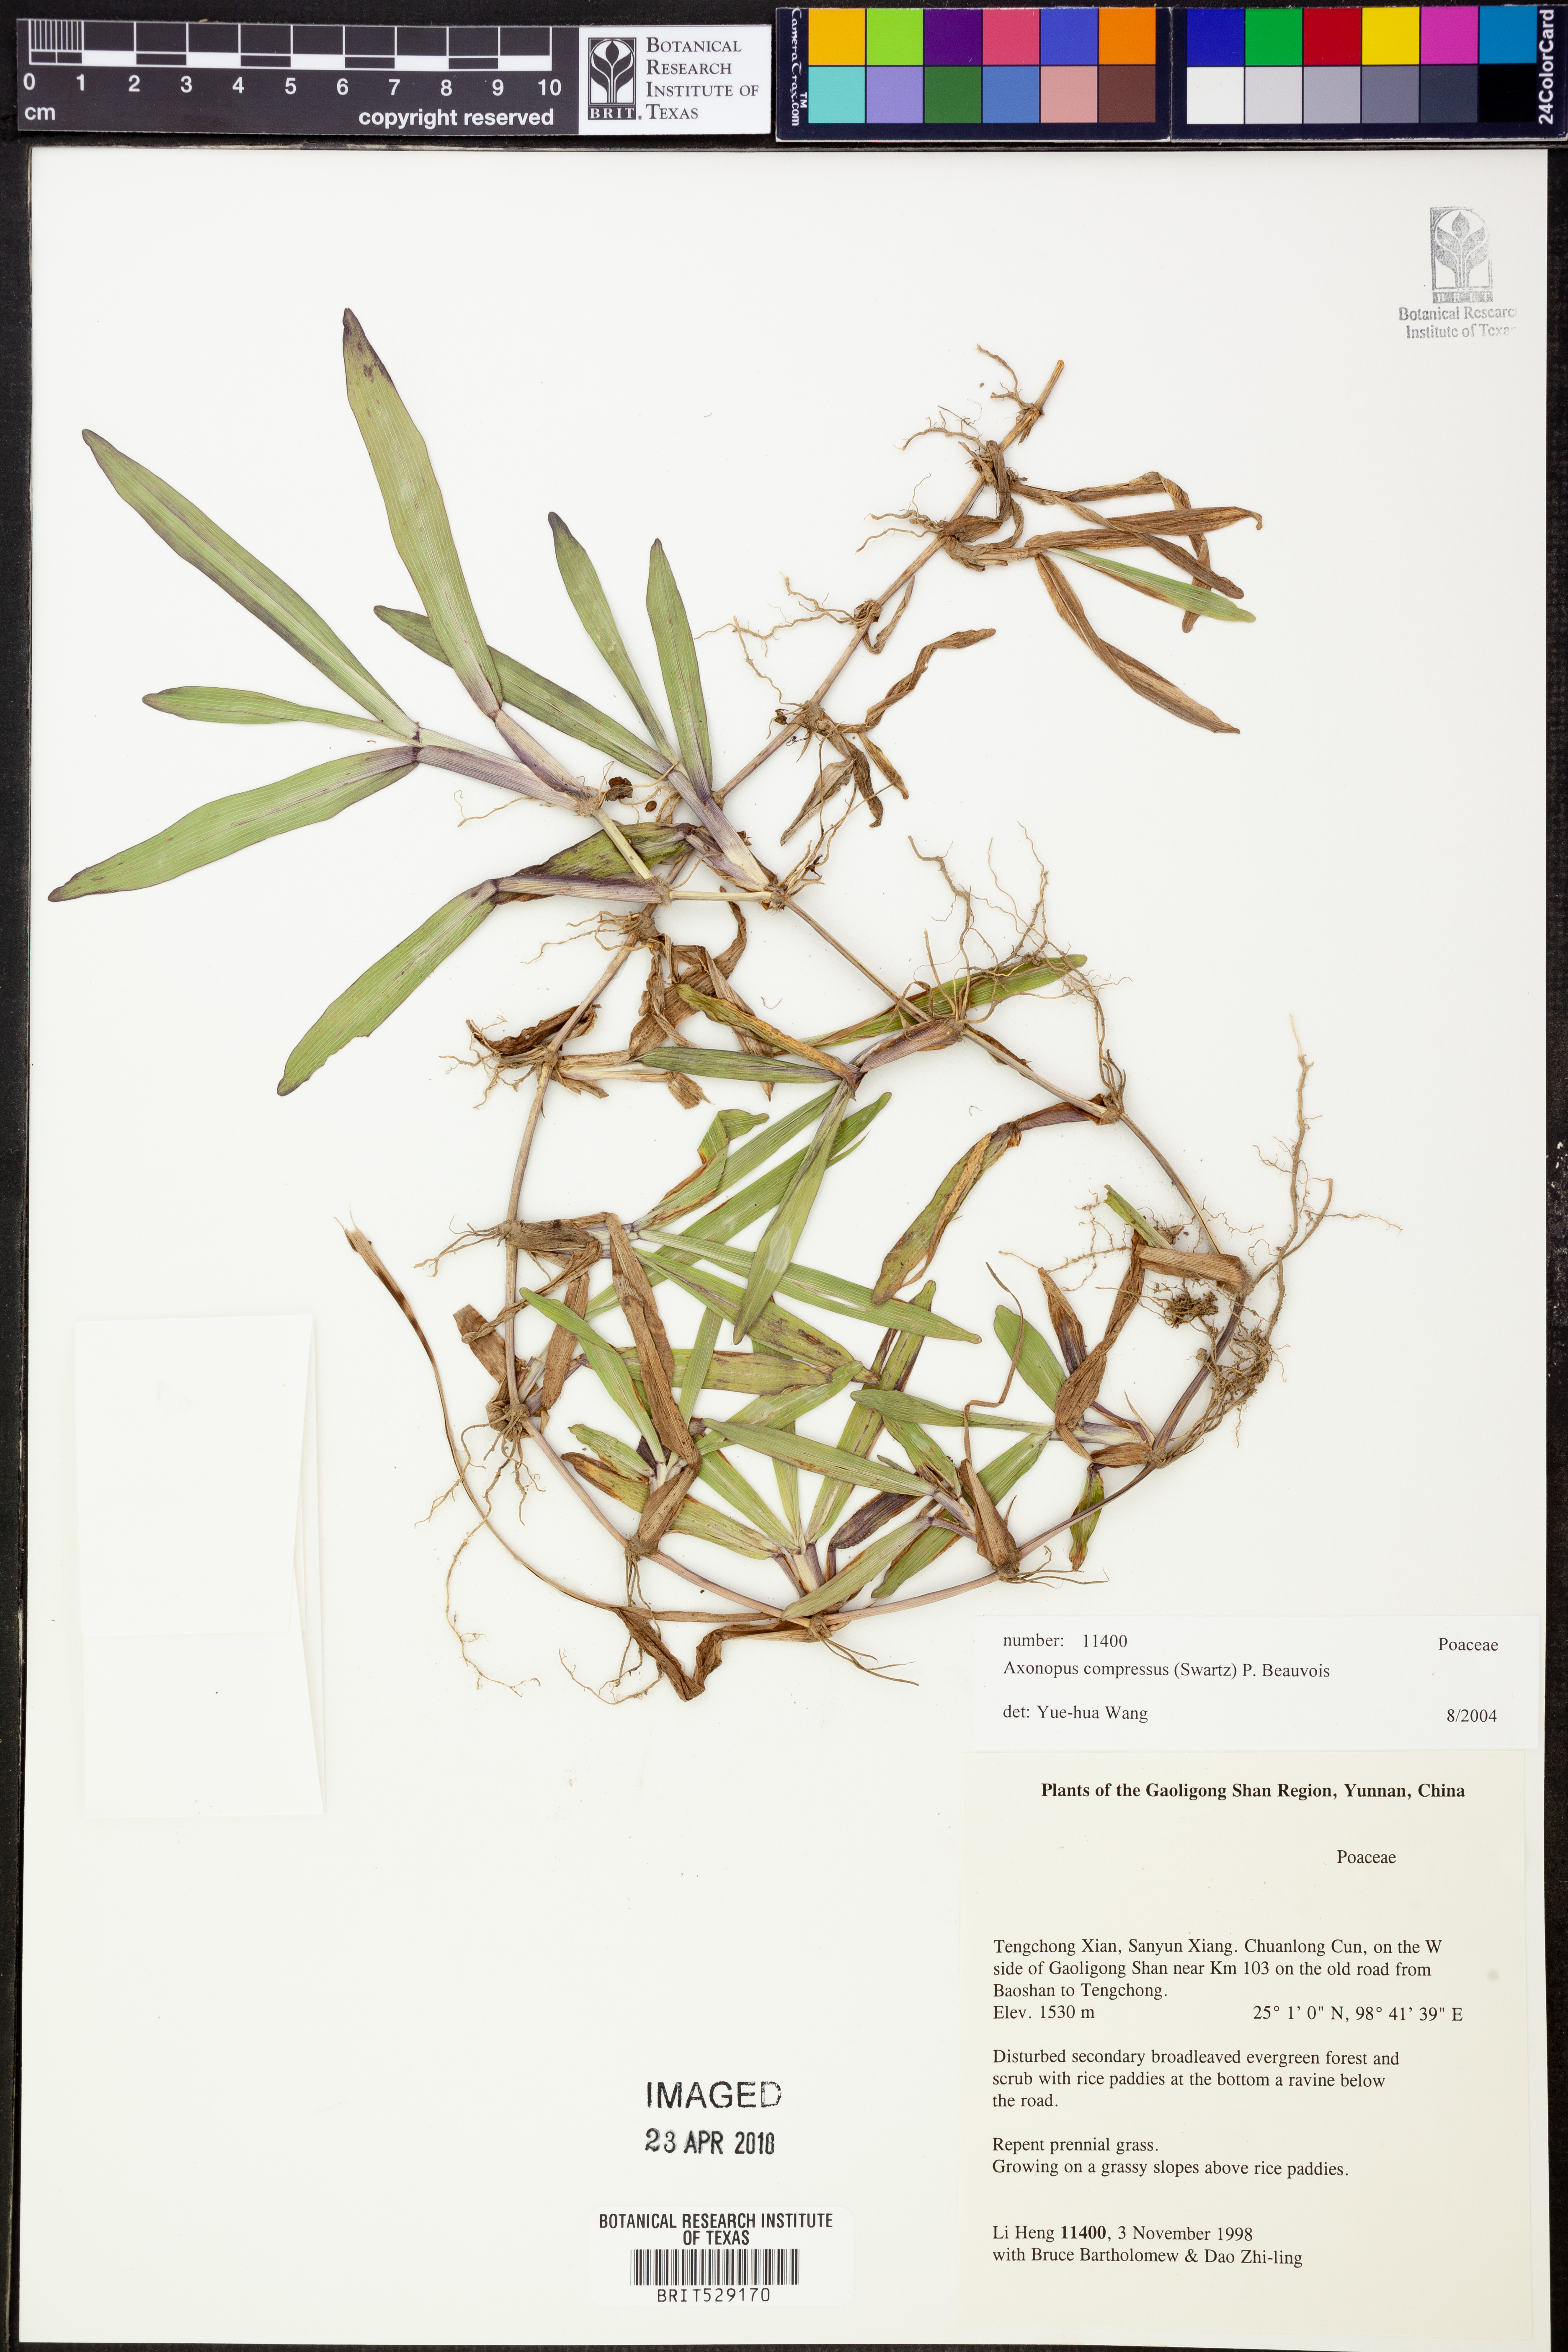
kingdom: Plantae
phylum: Tracheophyta
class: Liliopsida
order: Poales
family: Poaceae
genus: Axonopus
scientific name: Axonopus compressus
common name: American carpet grass
